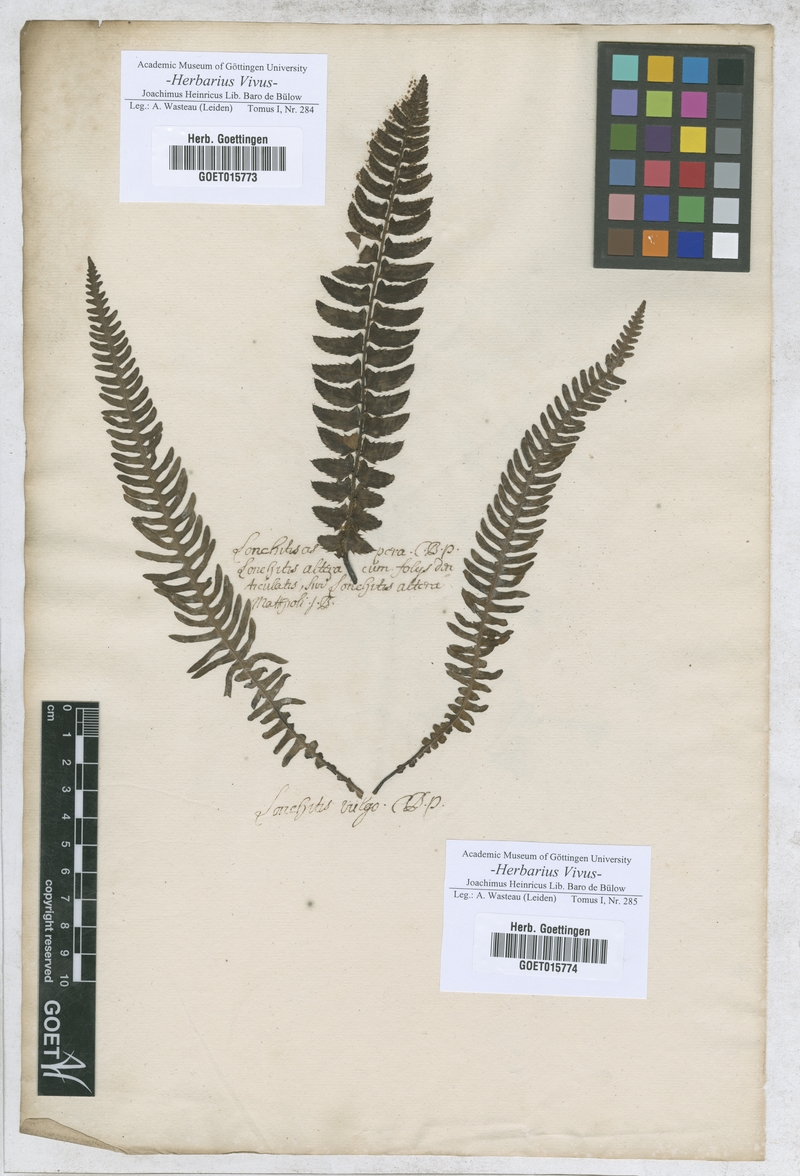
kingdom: Plantae
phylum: Tracheophyta
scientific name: Tracheophyta
